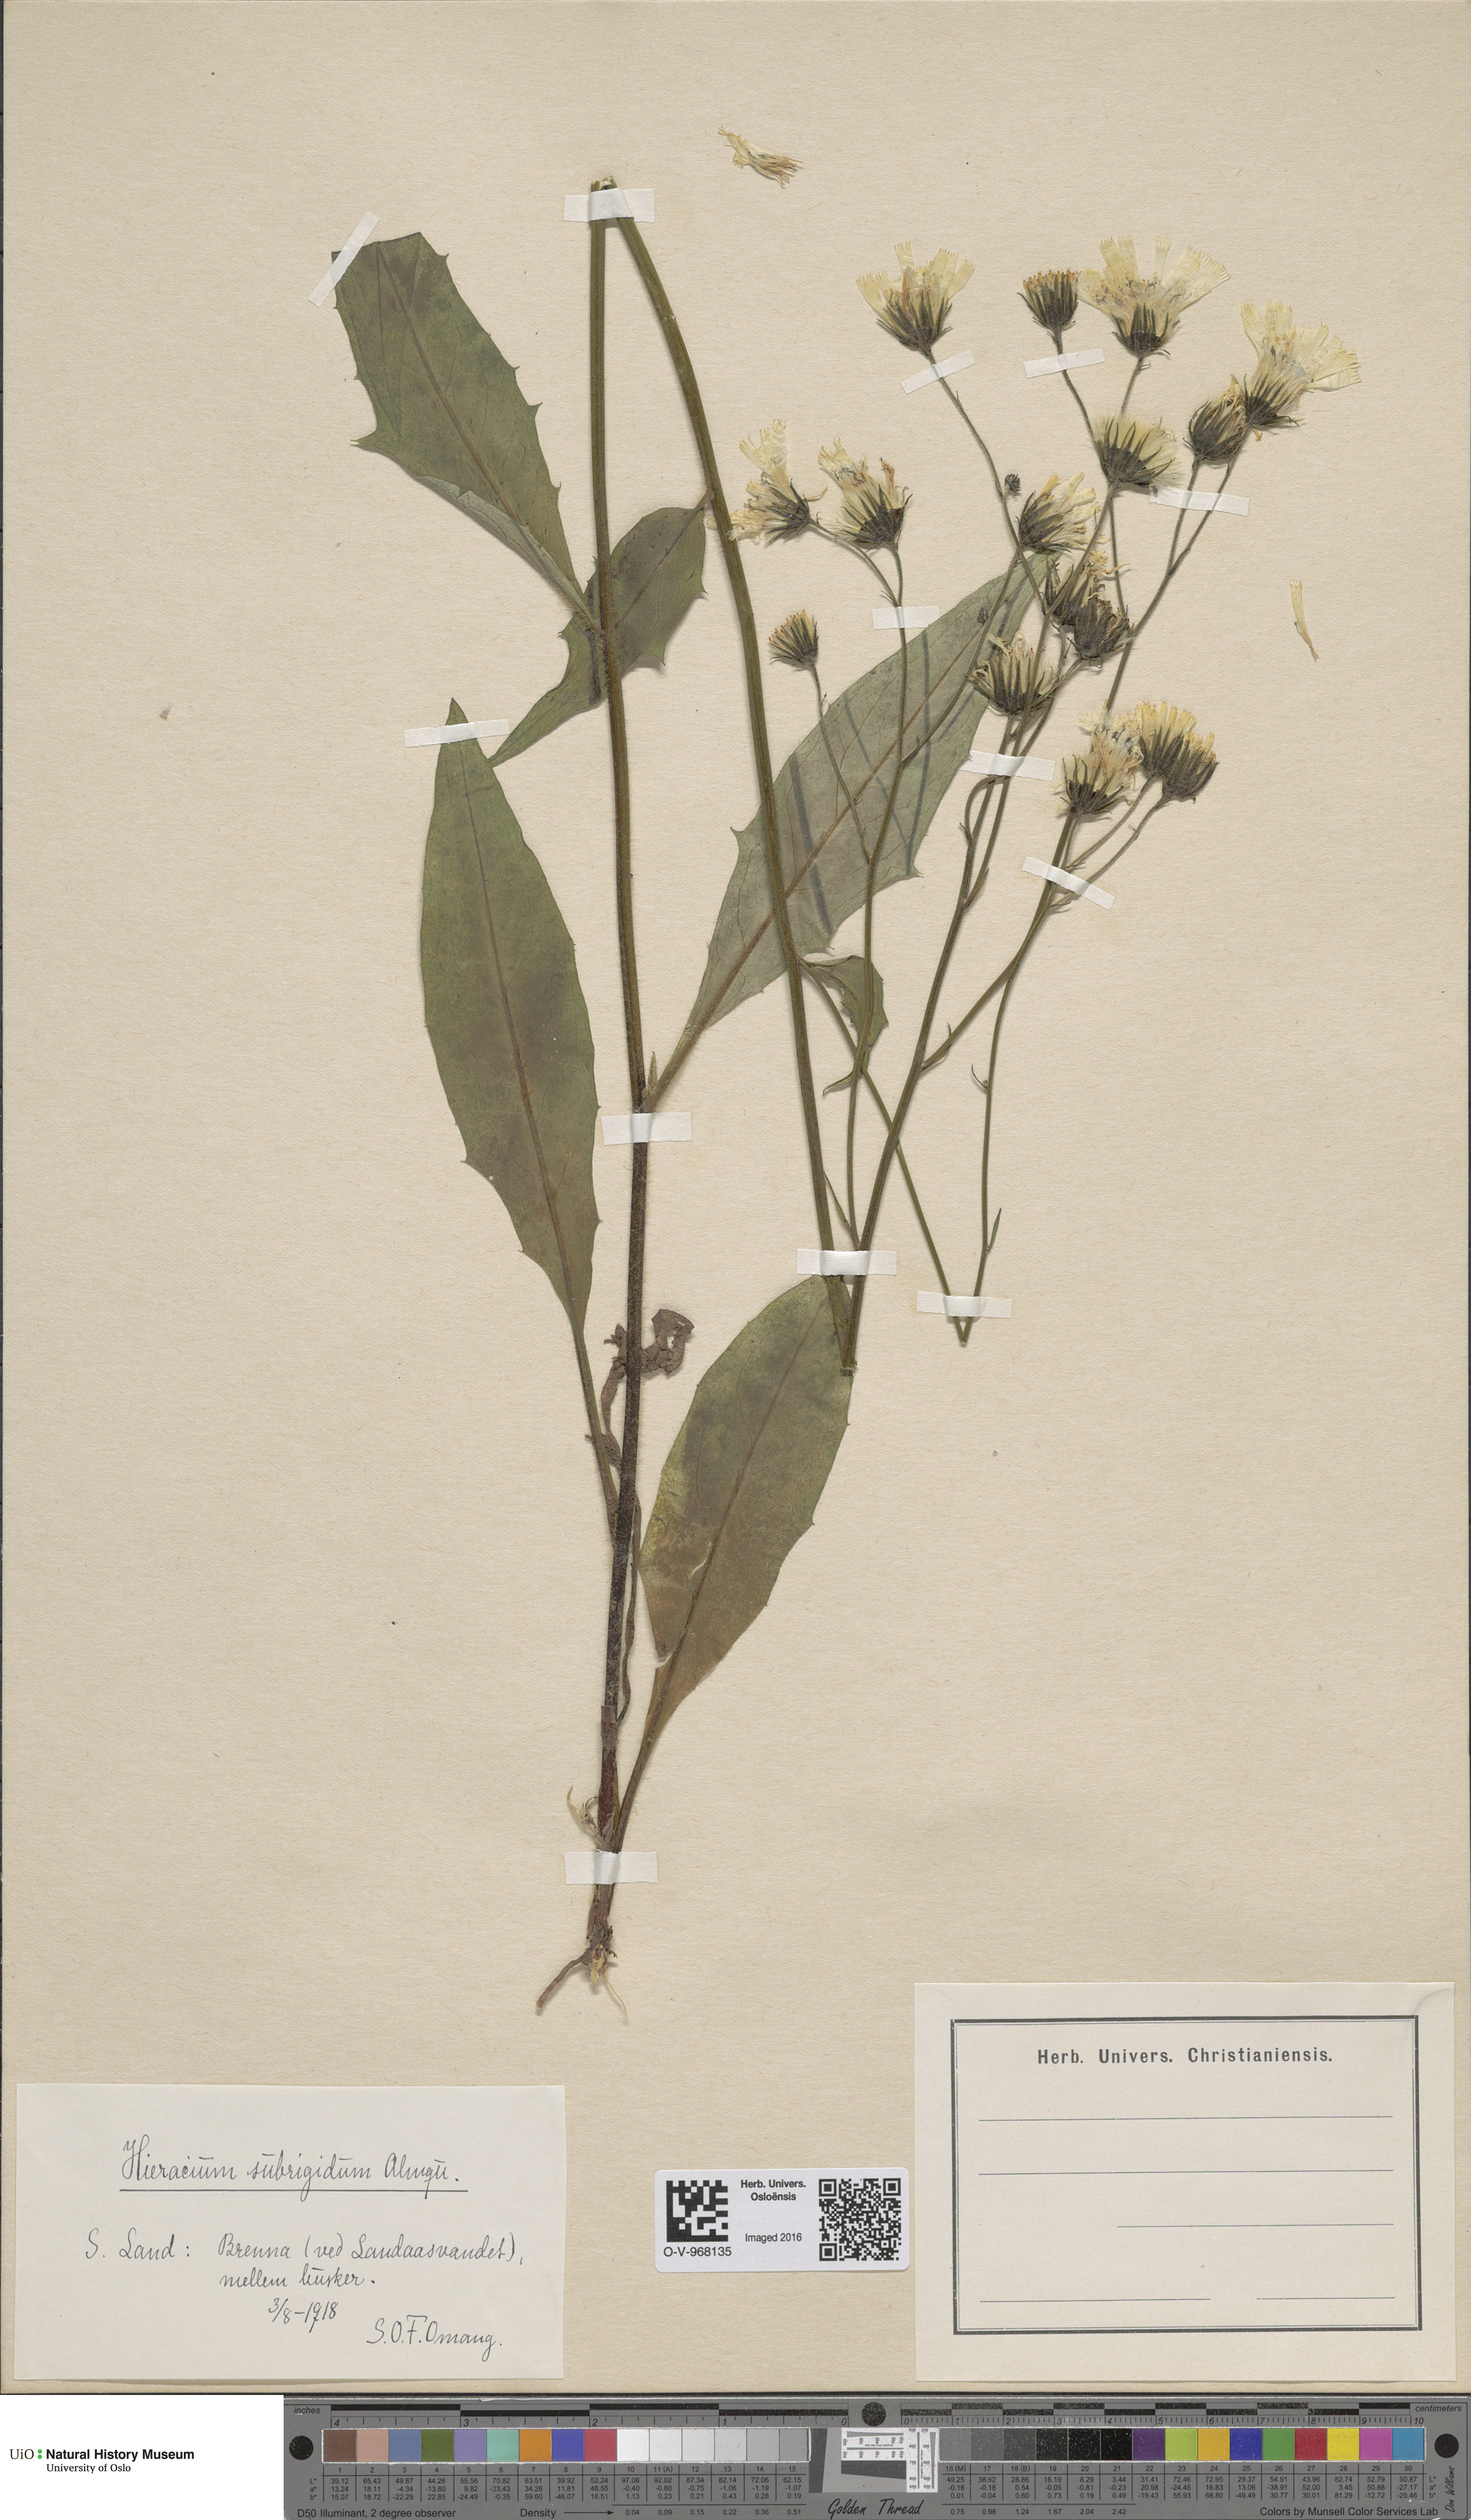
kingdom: Plantae
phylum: Tracheophyta
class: Magnoliopsida
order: Asterales
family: Asteraceae
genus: Hieracium
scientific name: Hieracium subrigidum
